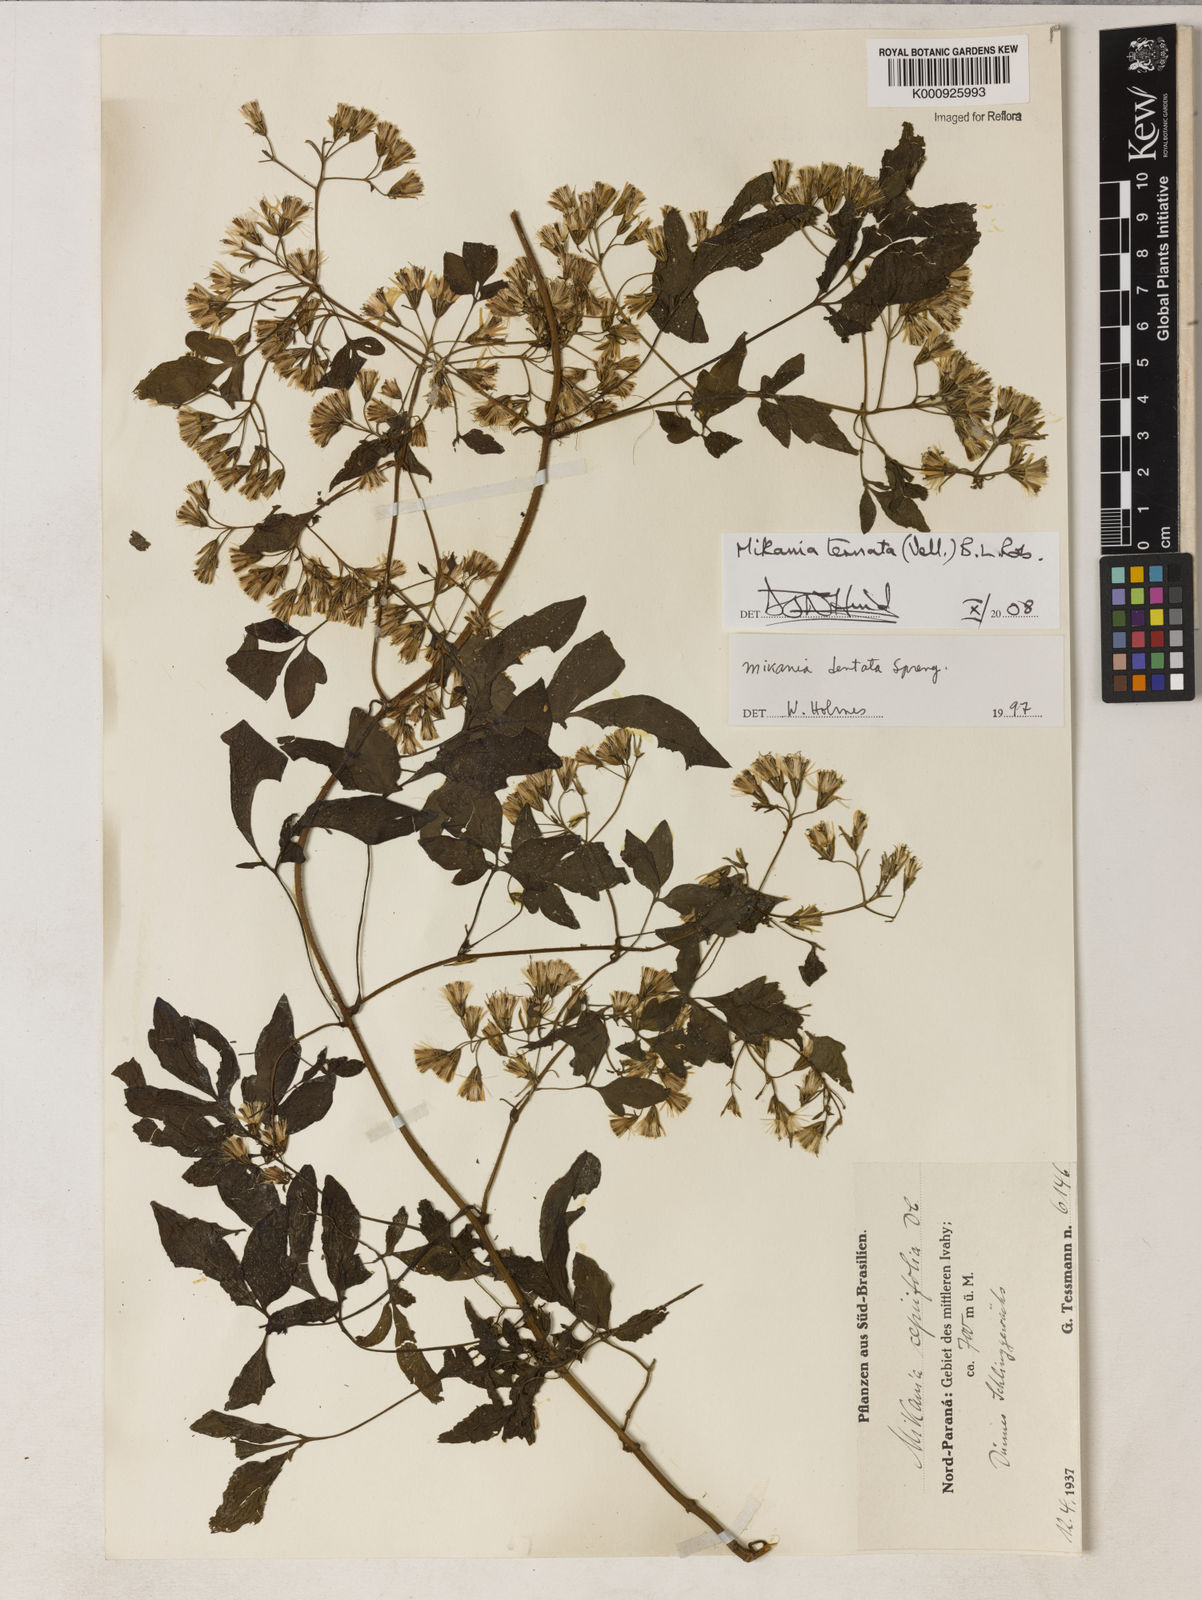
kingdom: Plantae
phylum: Tracheophyta
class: Magnoliopsida
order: Asterales
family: Asteraceae
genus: Mikania
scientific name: Mikania ternata
